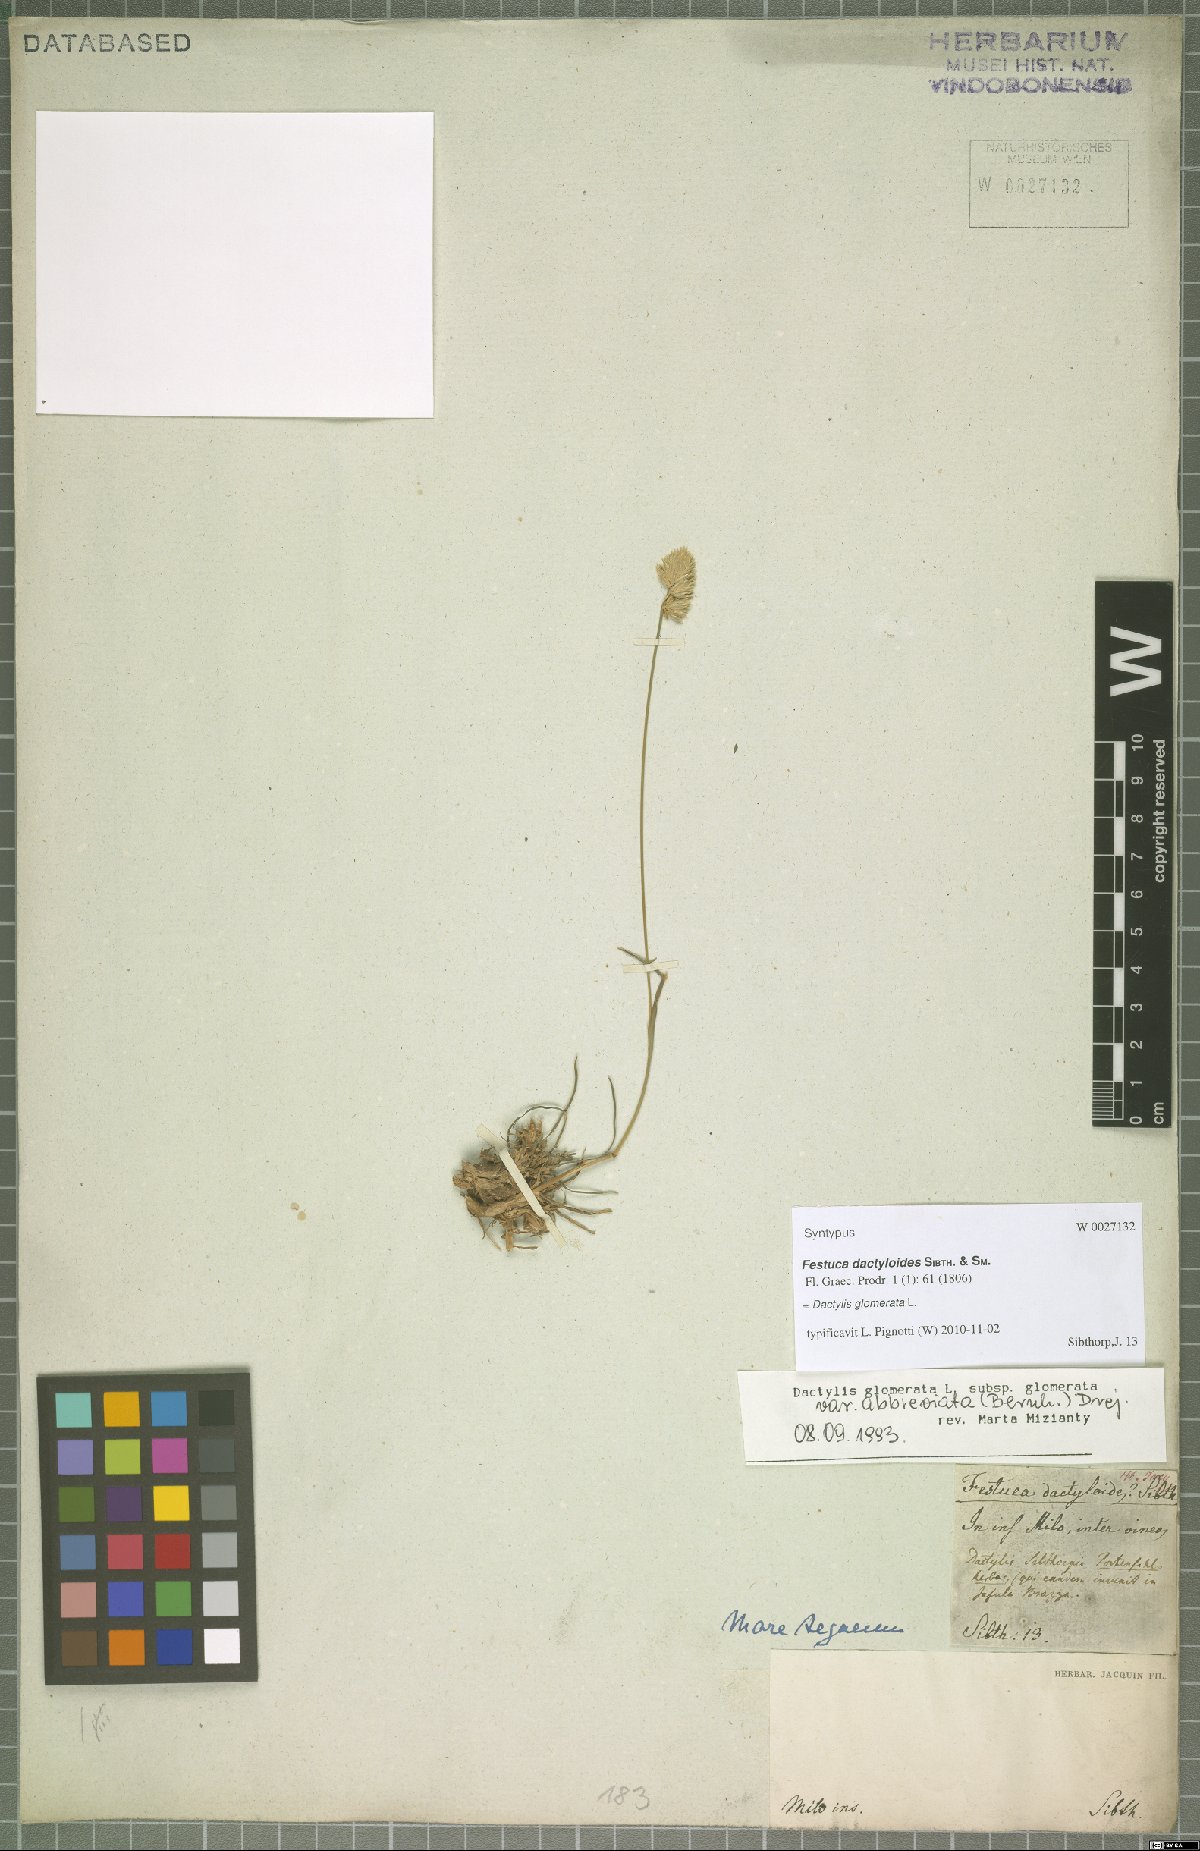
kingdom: Plantae
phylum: Tracheophyta
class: Liliopsida
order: Poales
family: Poaceae
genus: Dactylis
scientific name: Dactylis glomerata
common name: Orchardgrass
